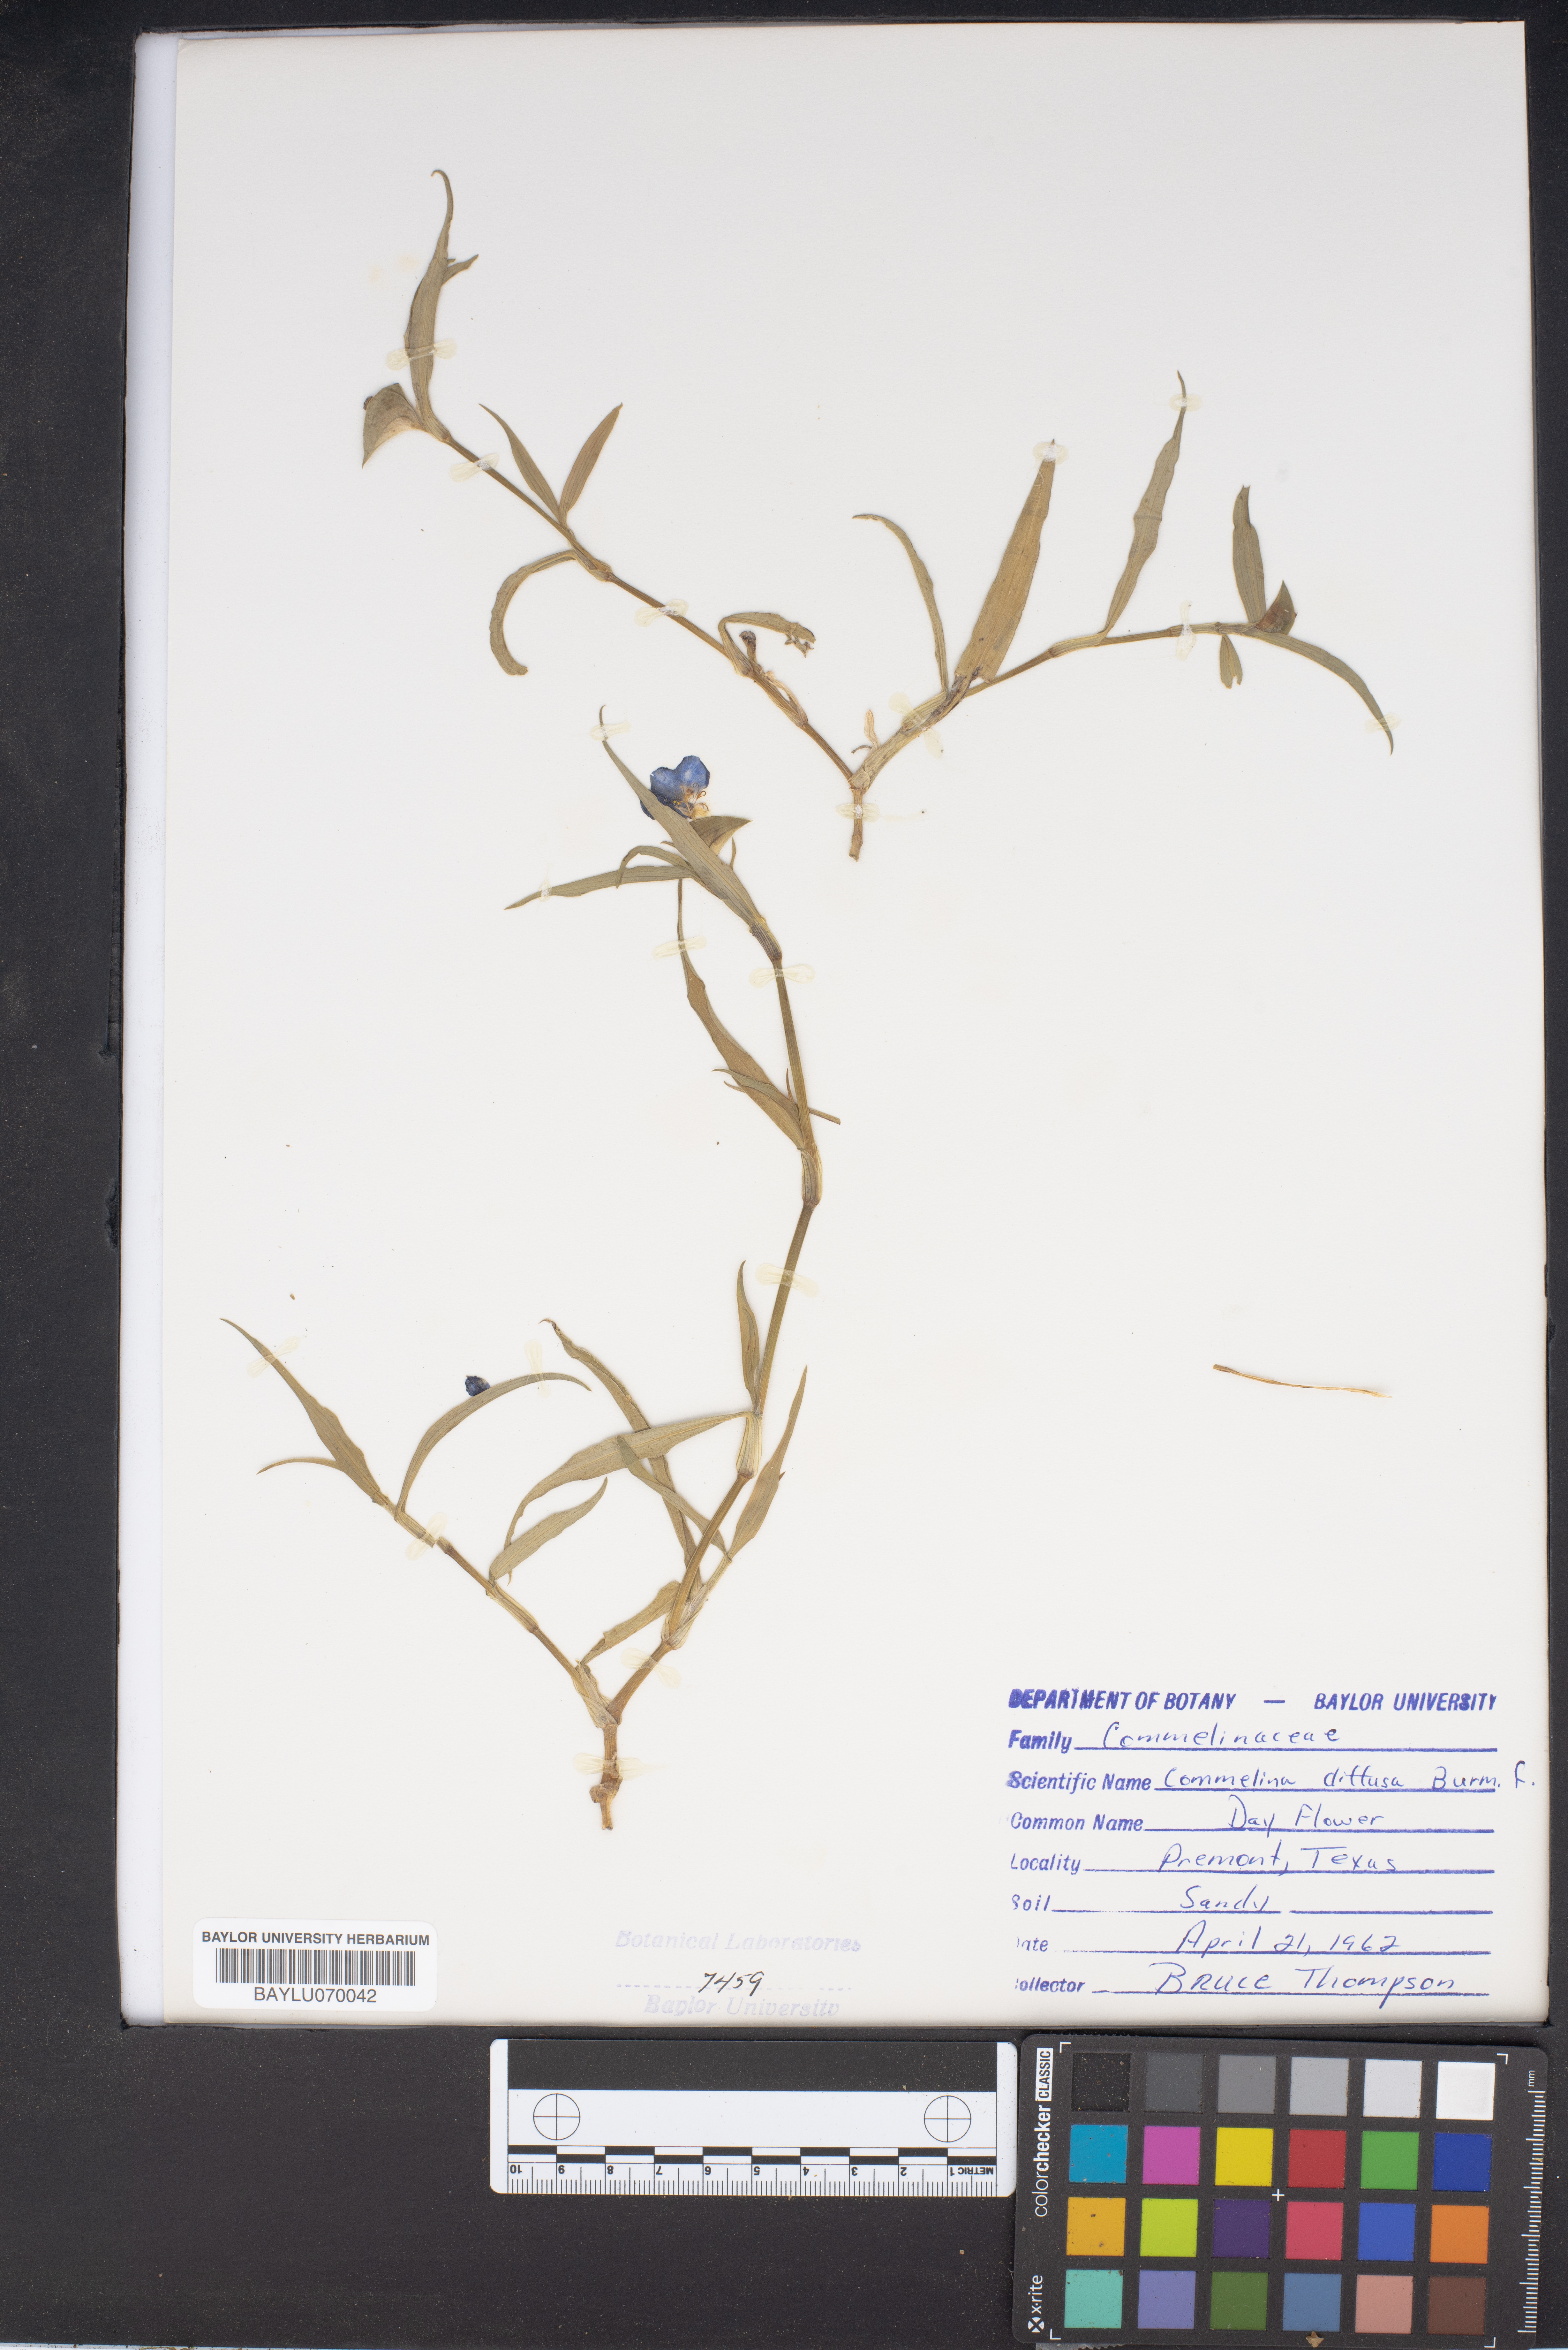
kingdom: Plantae
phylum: Tracheophyta
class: Liliopsida
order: Commelinales
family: Commelinaceae
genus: Commelina
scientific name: Commelina diffusa
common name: Climbing dayflower
